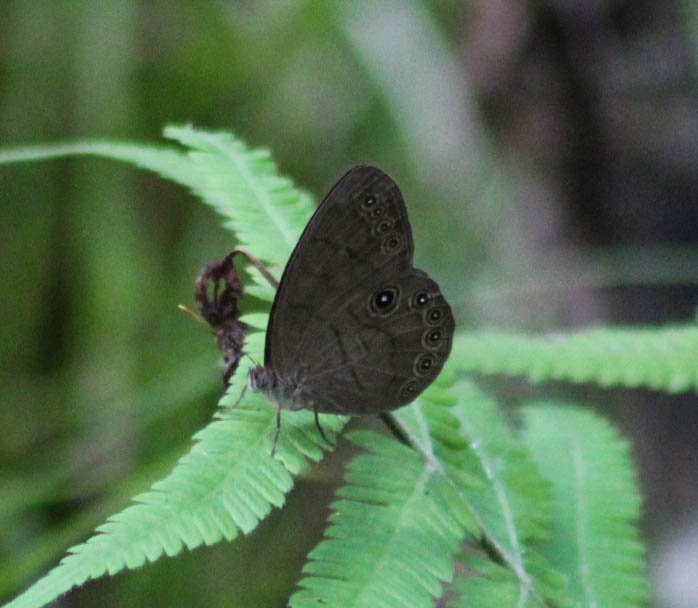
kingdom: Animalia
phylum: Arthropoda
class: Insecta
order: Lepidoptera
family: Nymphalidae
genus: Lethe
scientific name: Lethe eurydice
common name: Appalachian Eyed Brown
